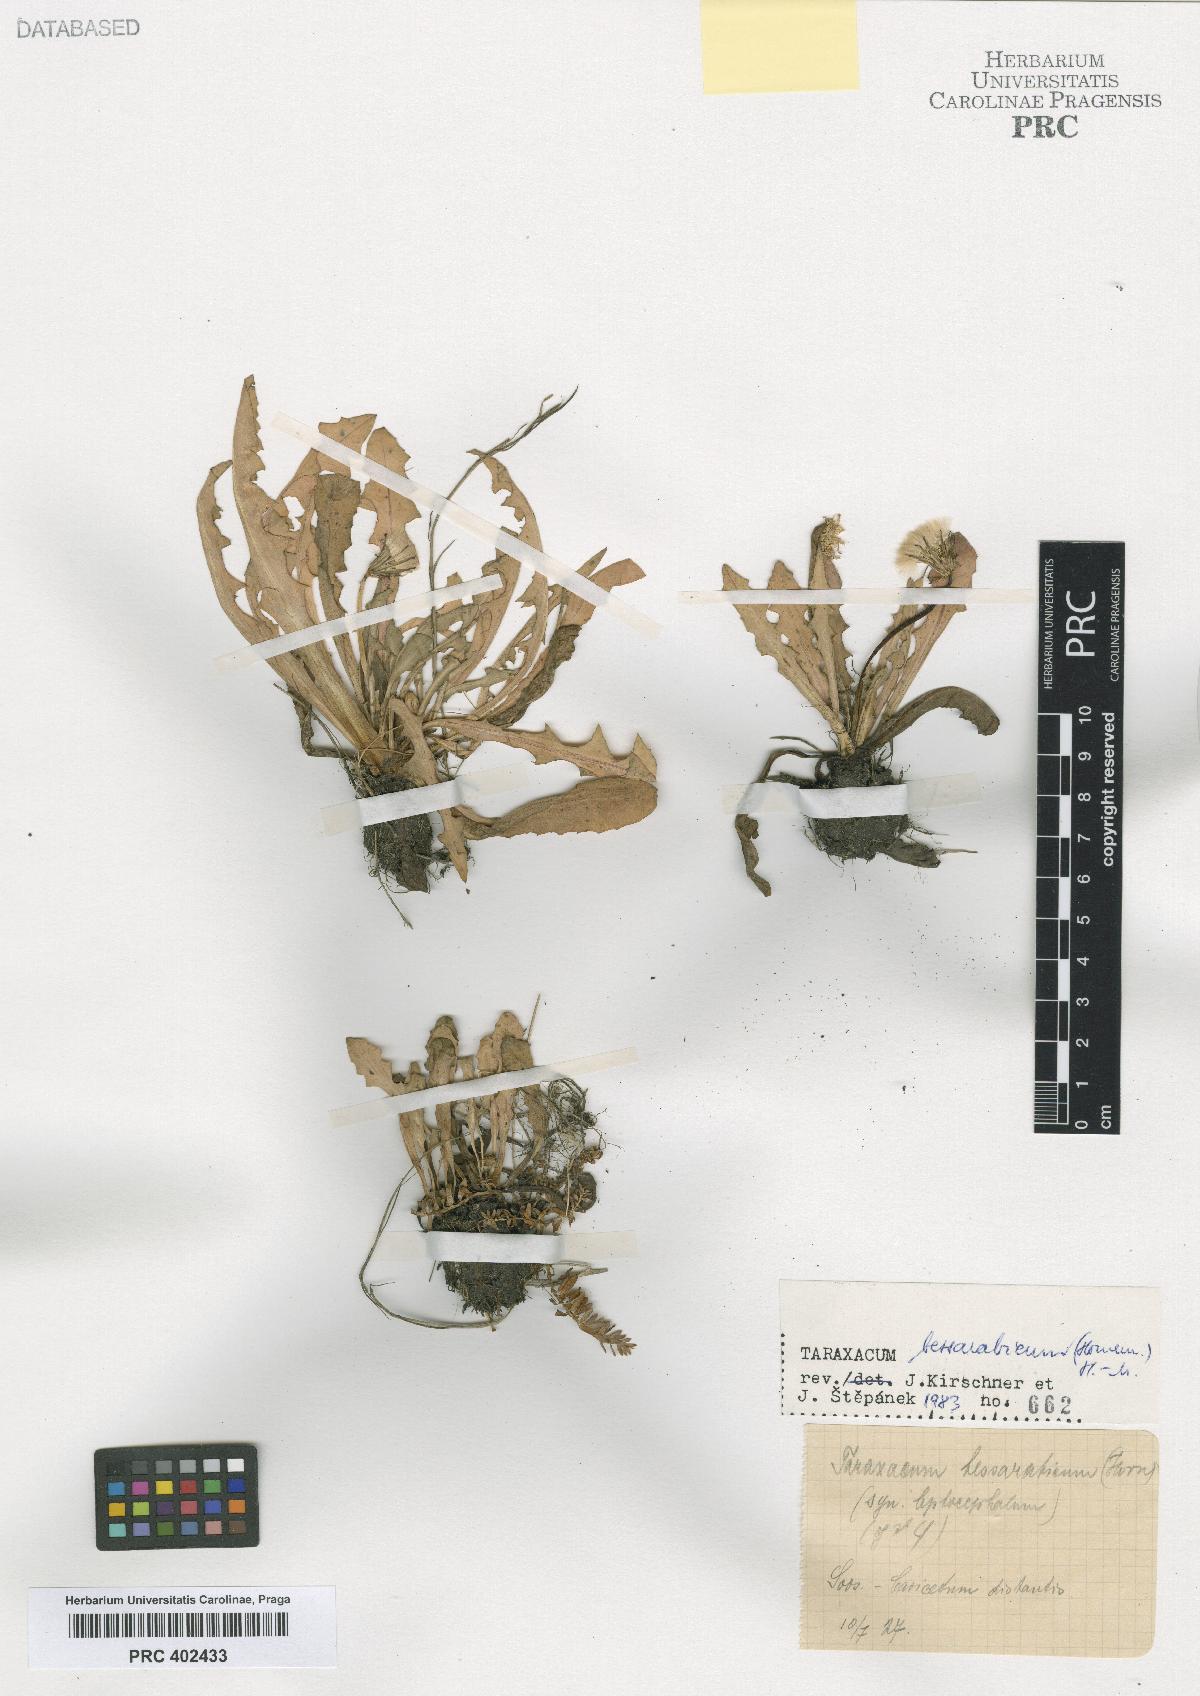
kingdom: Plantae
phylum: Tracheophyta
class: Magnoliopsida
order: Asterales
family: Asteraceae
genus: Taraxacum
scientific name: Taraxacum bessarabicum
